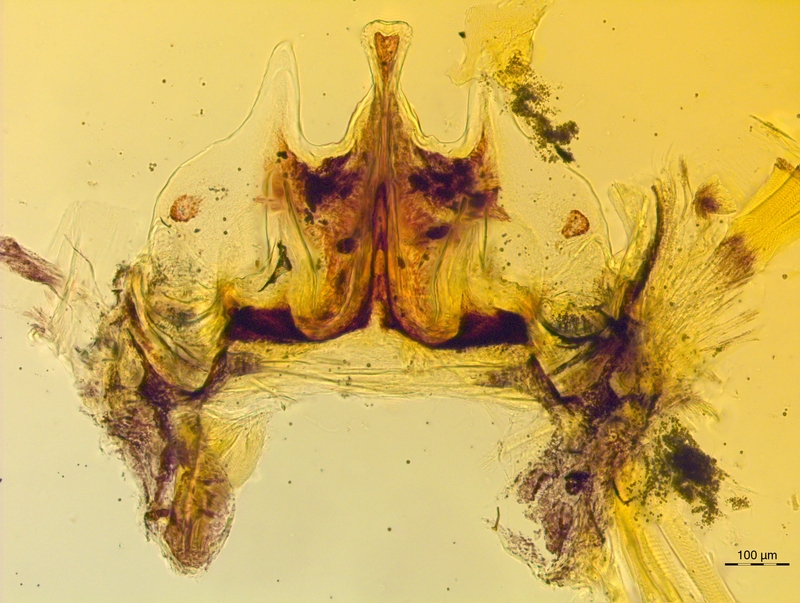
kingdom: Animalia
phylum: Arthropoda
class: Diplopoda
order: Chordeumatida
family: Craspedosomatidae
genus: Craspedosoma
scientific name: Craspedosoma brentanum
